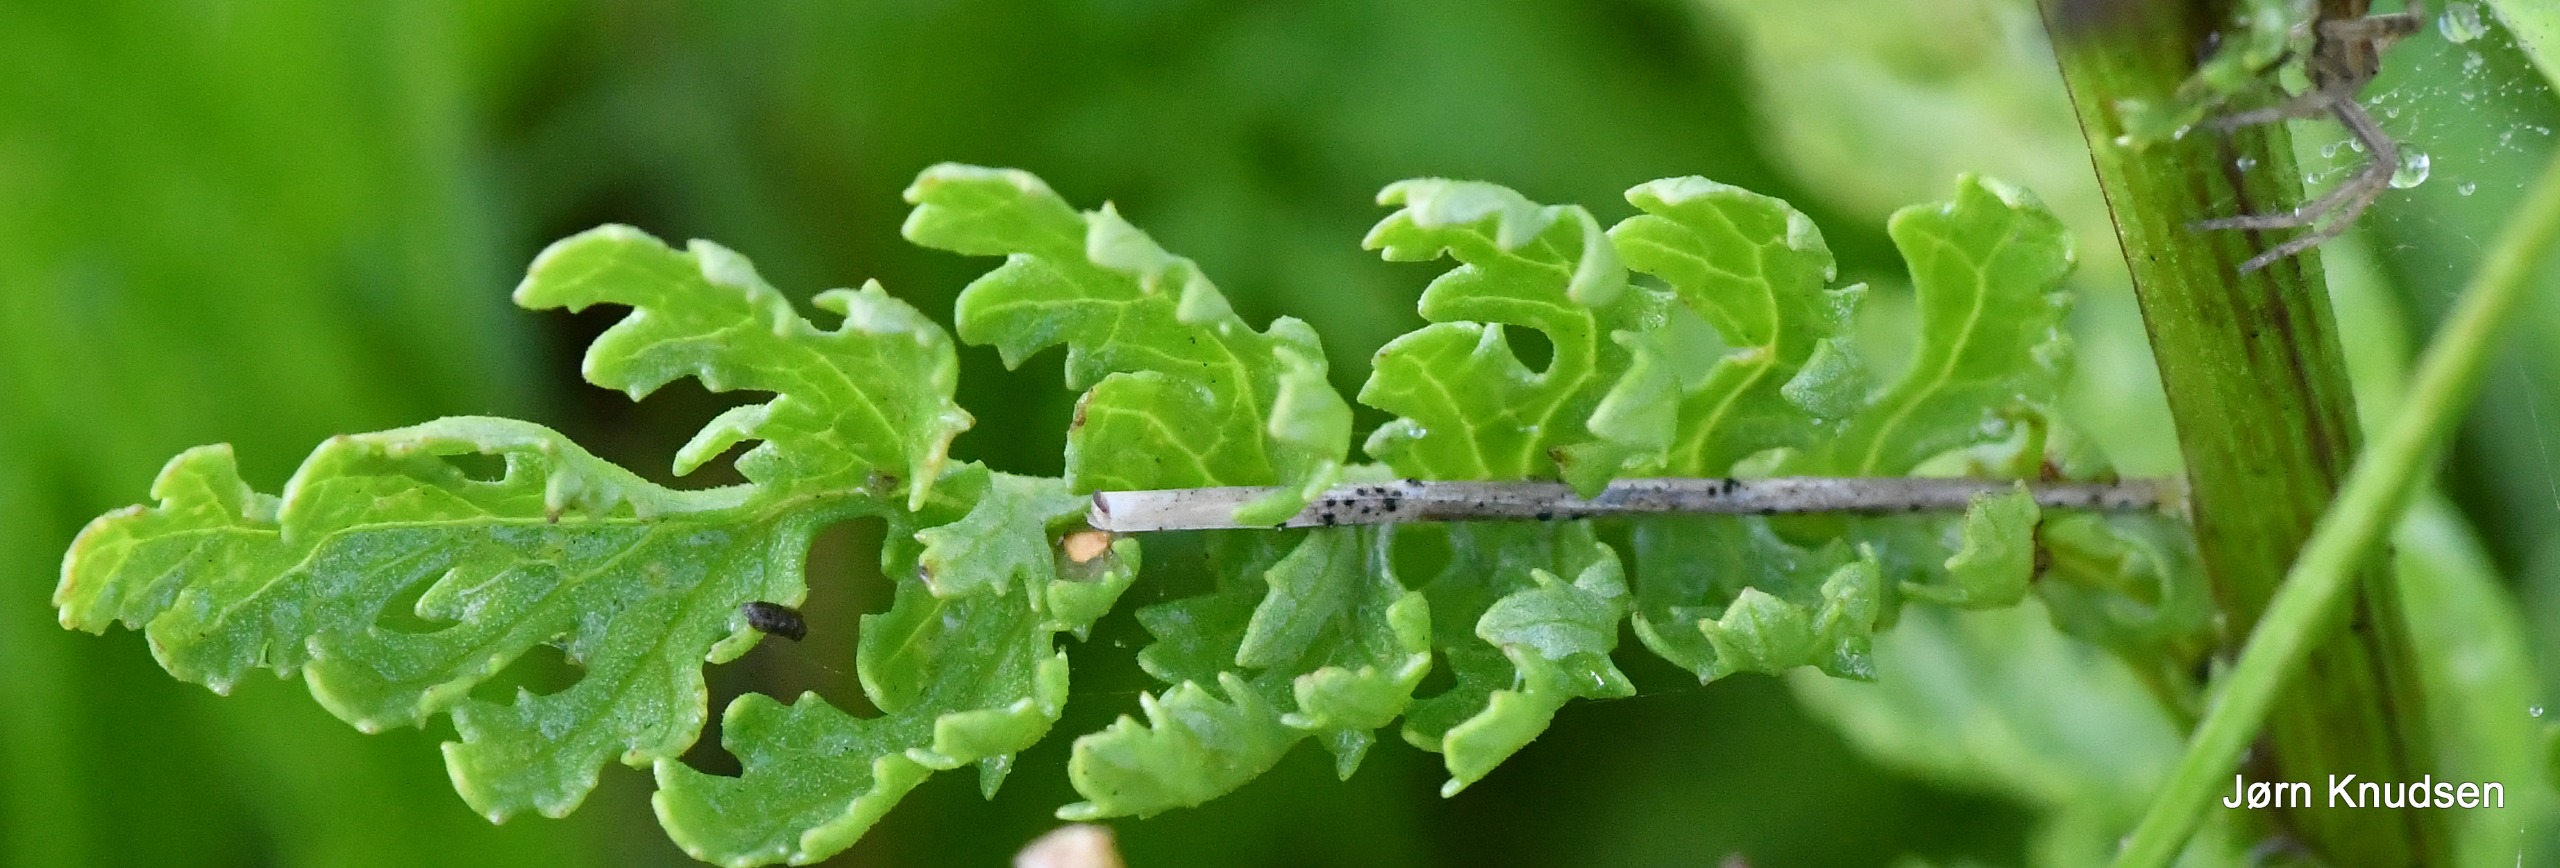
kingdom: Plantae
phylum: Tracheophyta
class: Magnoliopsida
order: Asterales
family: Asteraceae
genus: Jacobaea
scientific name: Jacobaea vulgaris
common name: Eng-brandbæger
